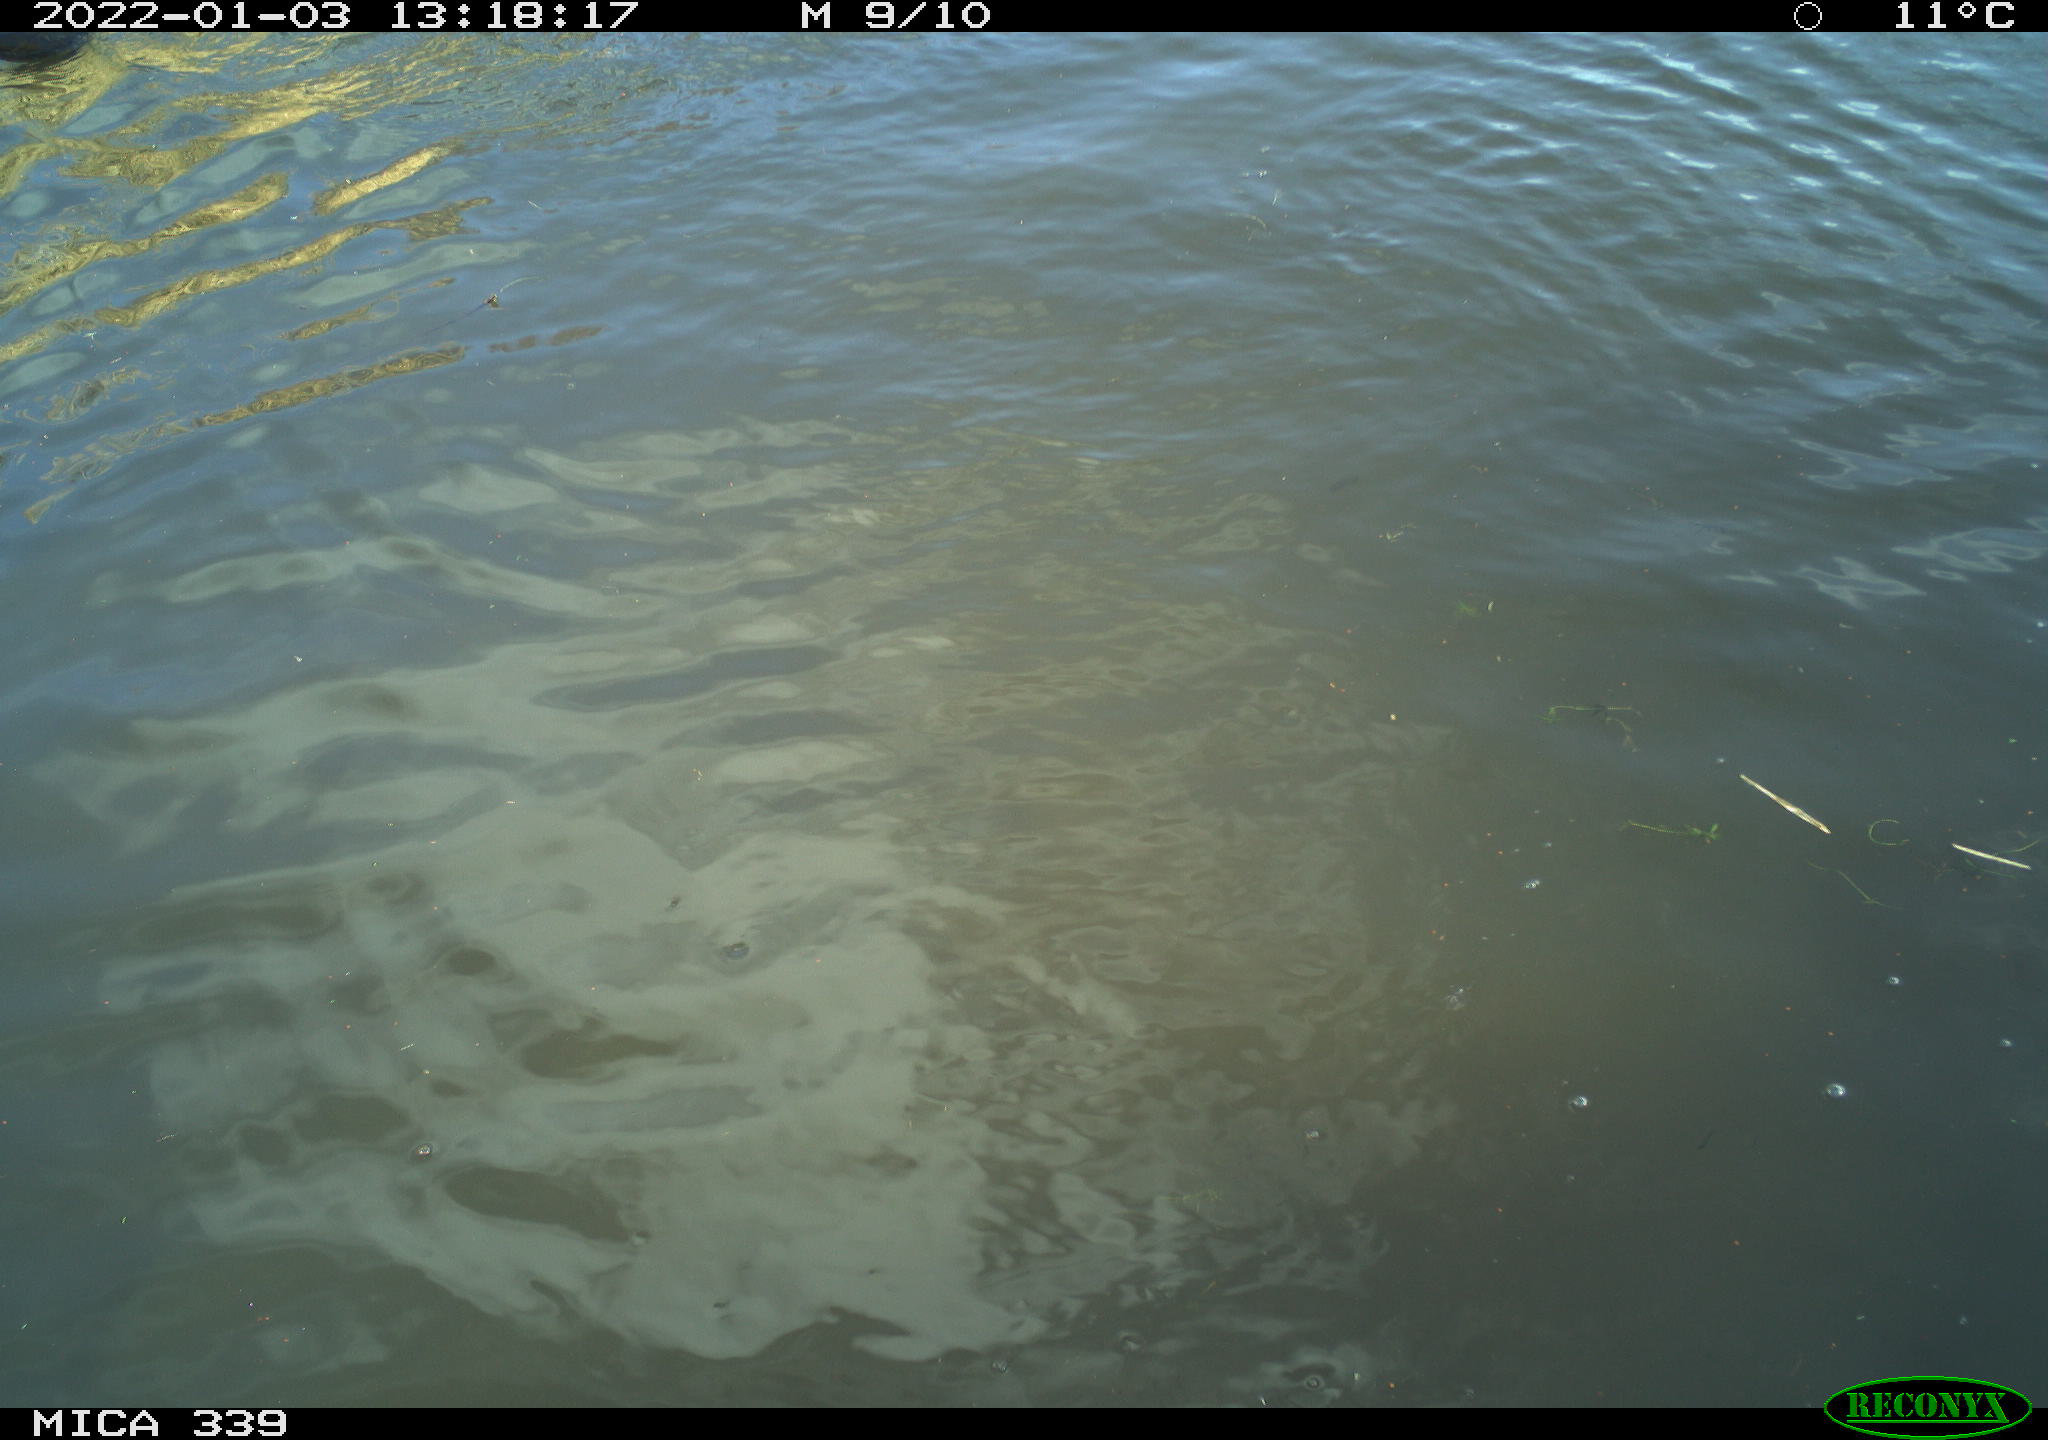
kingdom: Animalia
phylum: Chordata
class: Aves
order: Suliformes
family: Phalacrocoracidae
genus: Phalacrocorax
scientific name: Phalacrocorax carbo
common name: Great cormorant
